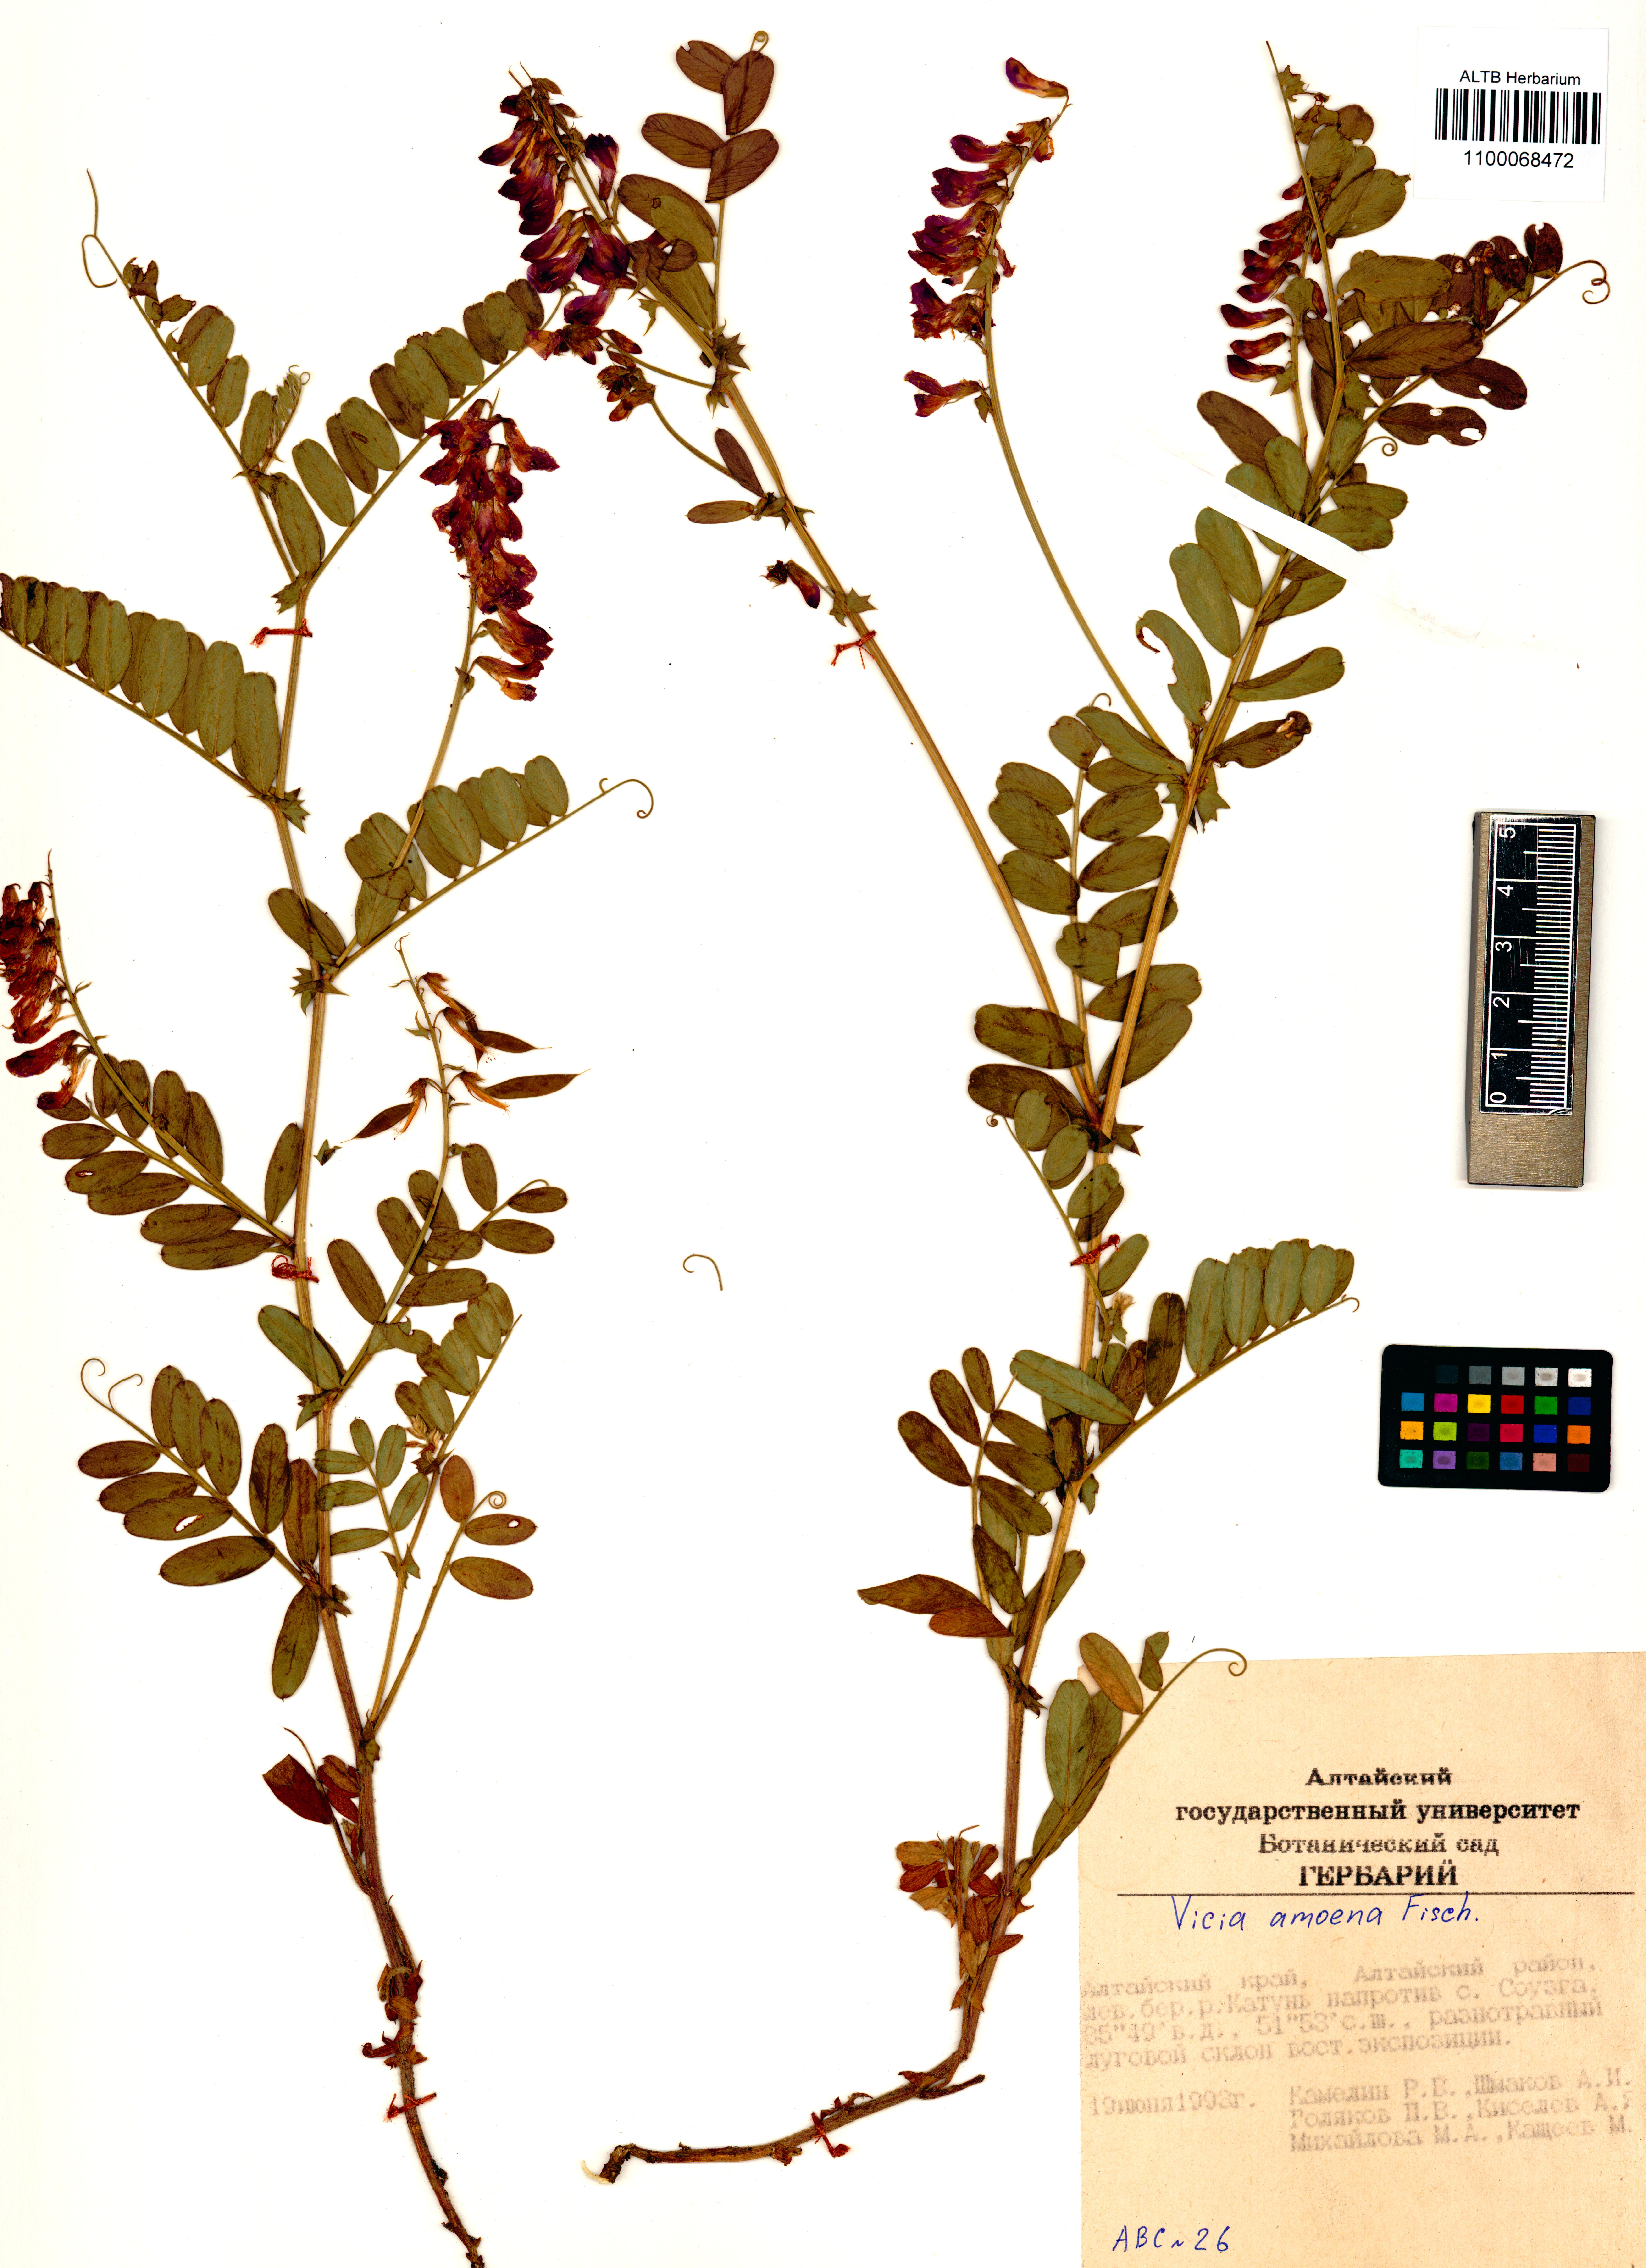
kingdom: Plantae
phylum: Tracheophyta
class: Magnoliopsida
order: Fabales
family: Fabaceae
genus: Vicia
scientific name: Vicia amoena
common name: Cheder ebs
